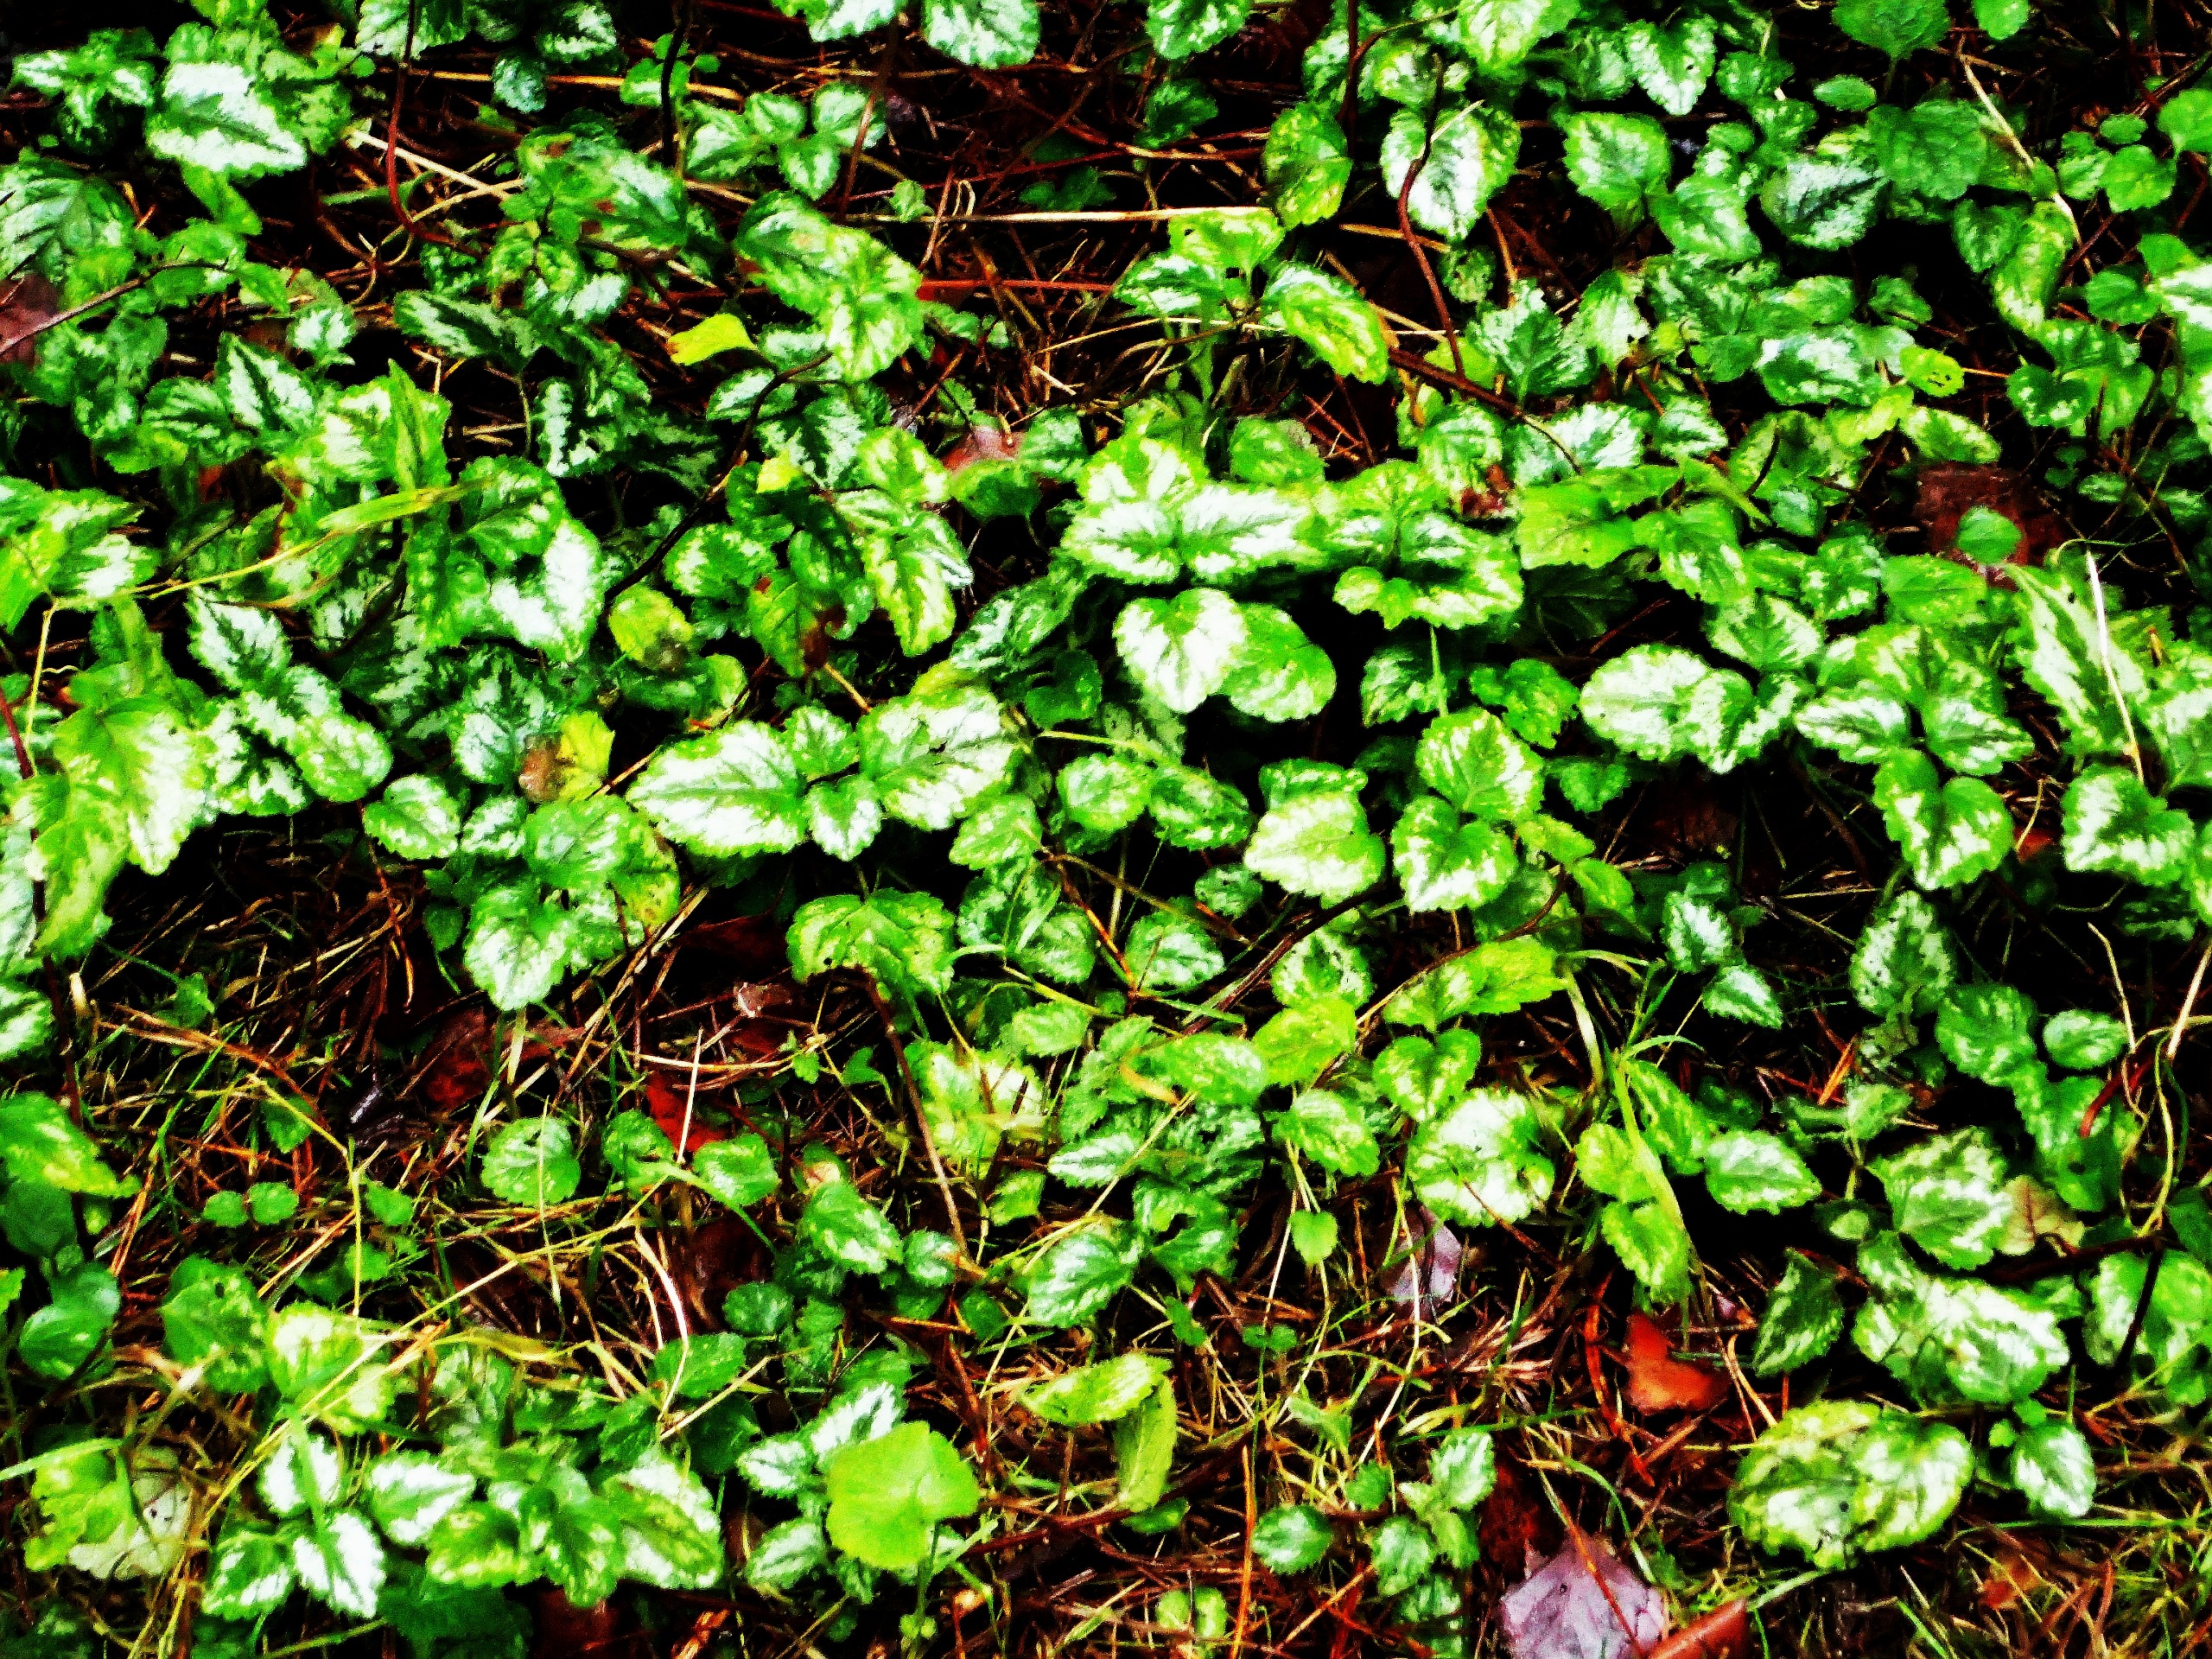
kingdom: Plantae
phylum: Tracheophyta
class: Magnoliopsida
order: Lamiales
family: Lamiaceae
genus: Lamium
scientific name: Lamium galeobdolon
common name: Have-guldnælde
